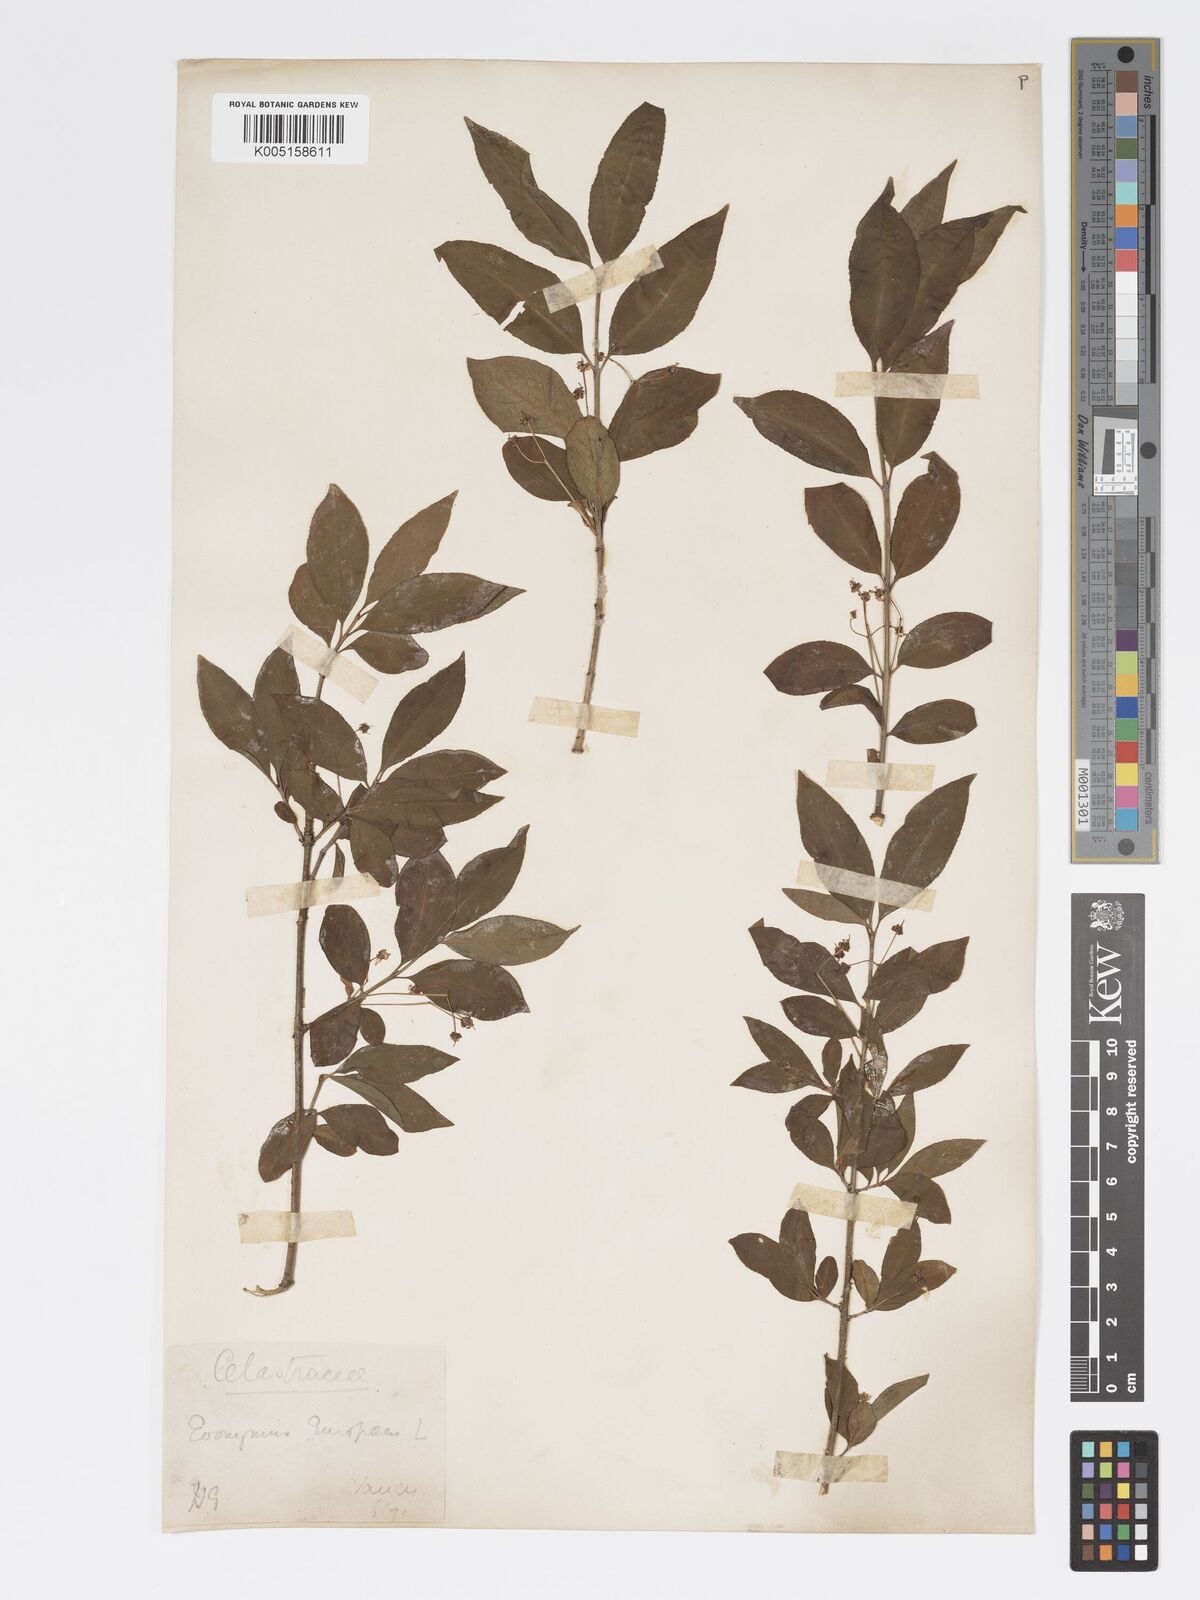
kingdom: Plantae
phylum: Tracheophyta
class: Magnoliopsida
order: Celastrales
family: Celastraceae
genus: Euonymus
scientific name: Euonymus europaeus
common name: Spindle
